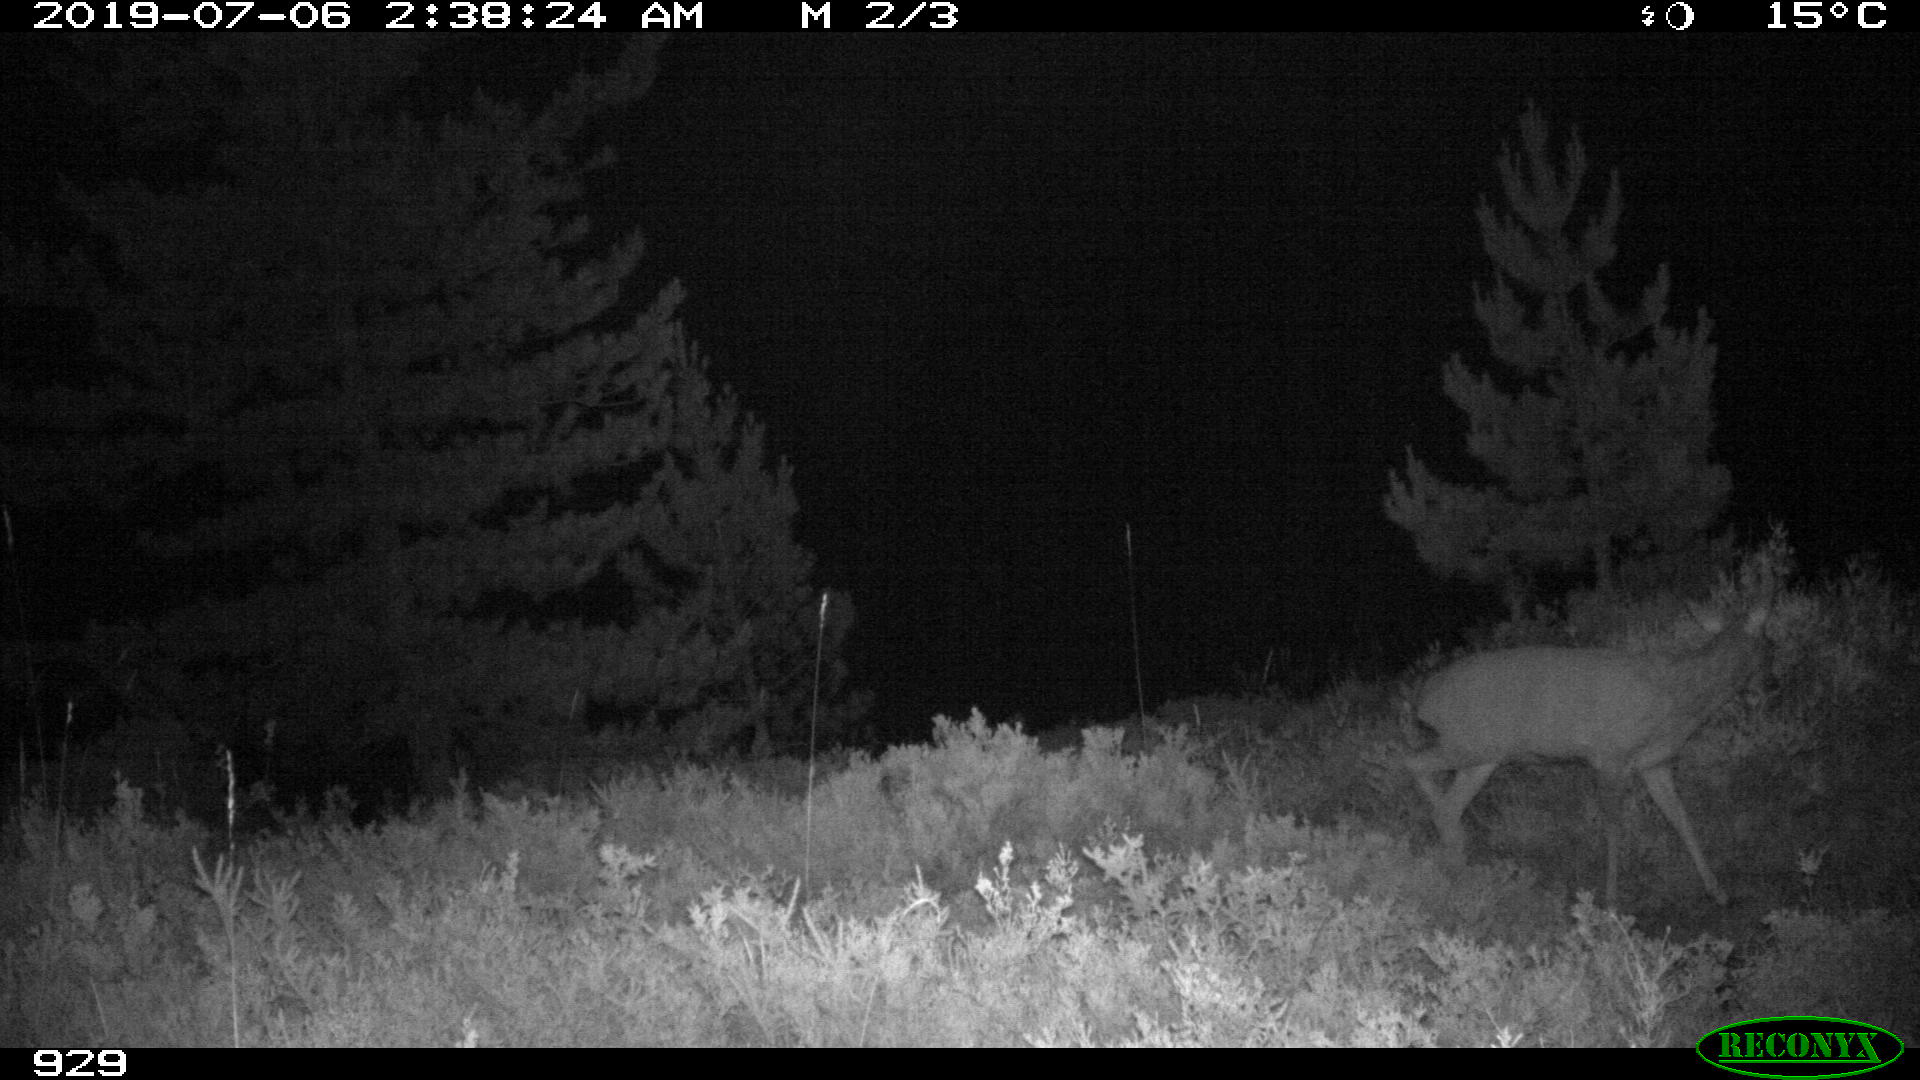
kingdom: Animalia
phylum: Chordata
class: Mammalia
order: Artiodactyla
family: Cervidae
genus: Capreolus
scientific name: Capreolus capreolus
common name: Western roe deer
